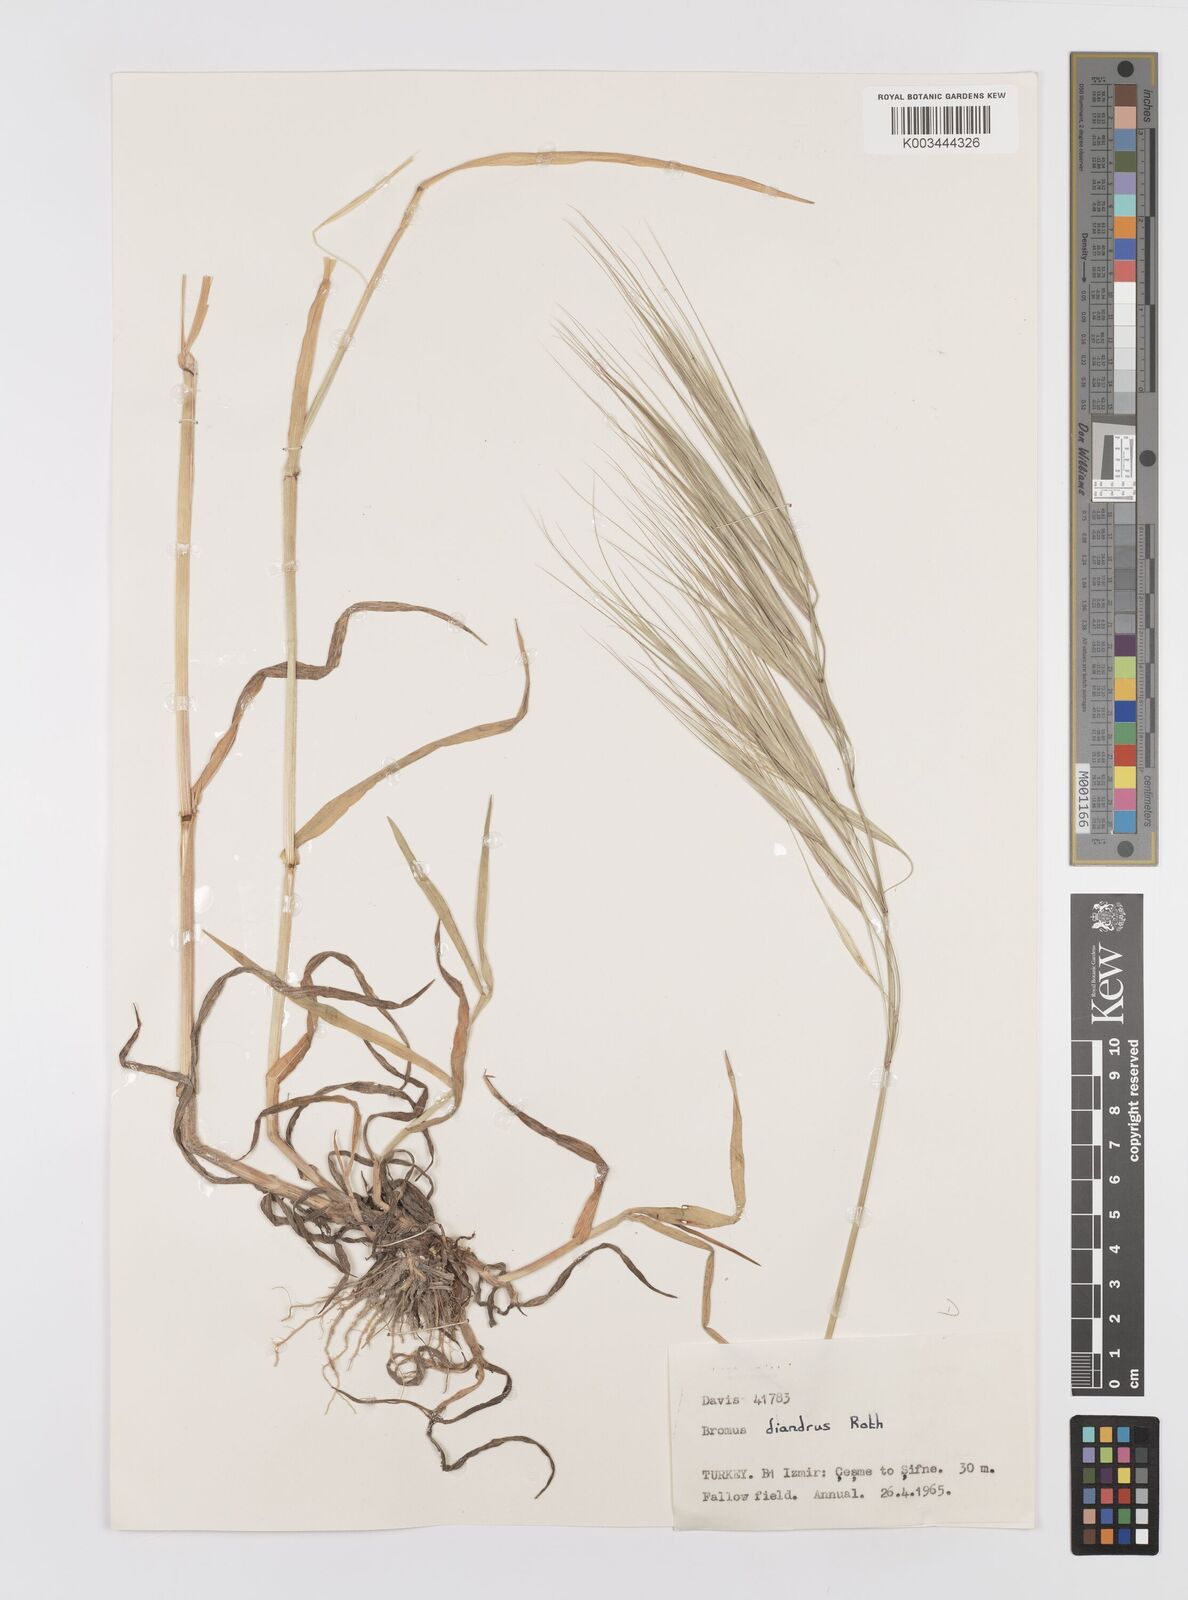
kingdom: Plantae
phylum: Tracheophyta
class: Liliopsida
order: Poales
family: Poaceae
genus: Bromus
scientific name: Bromus diandrus
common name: Ripgut brome
